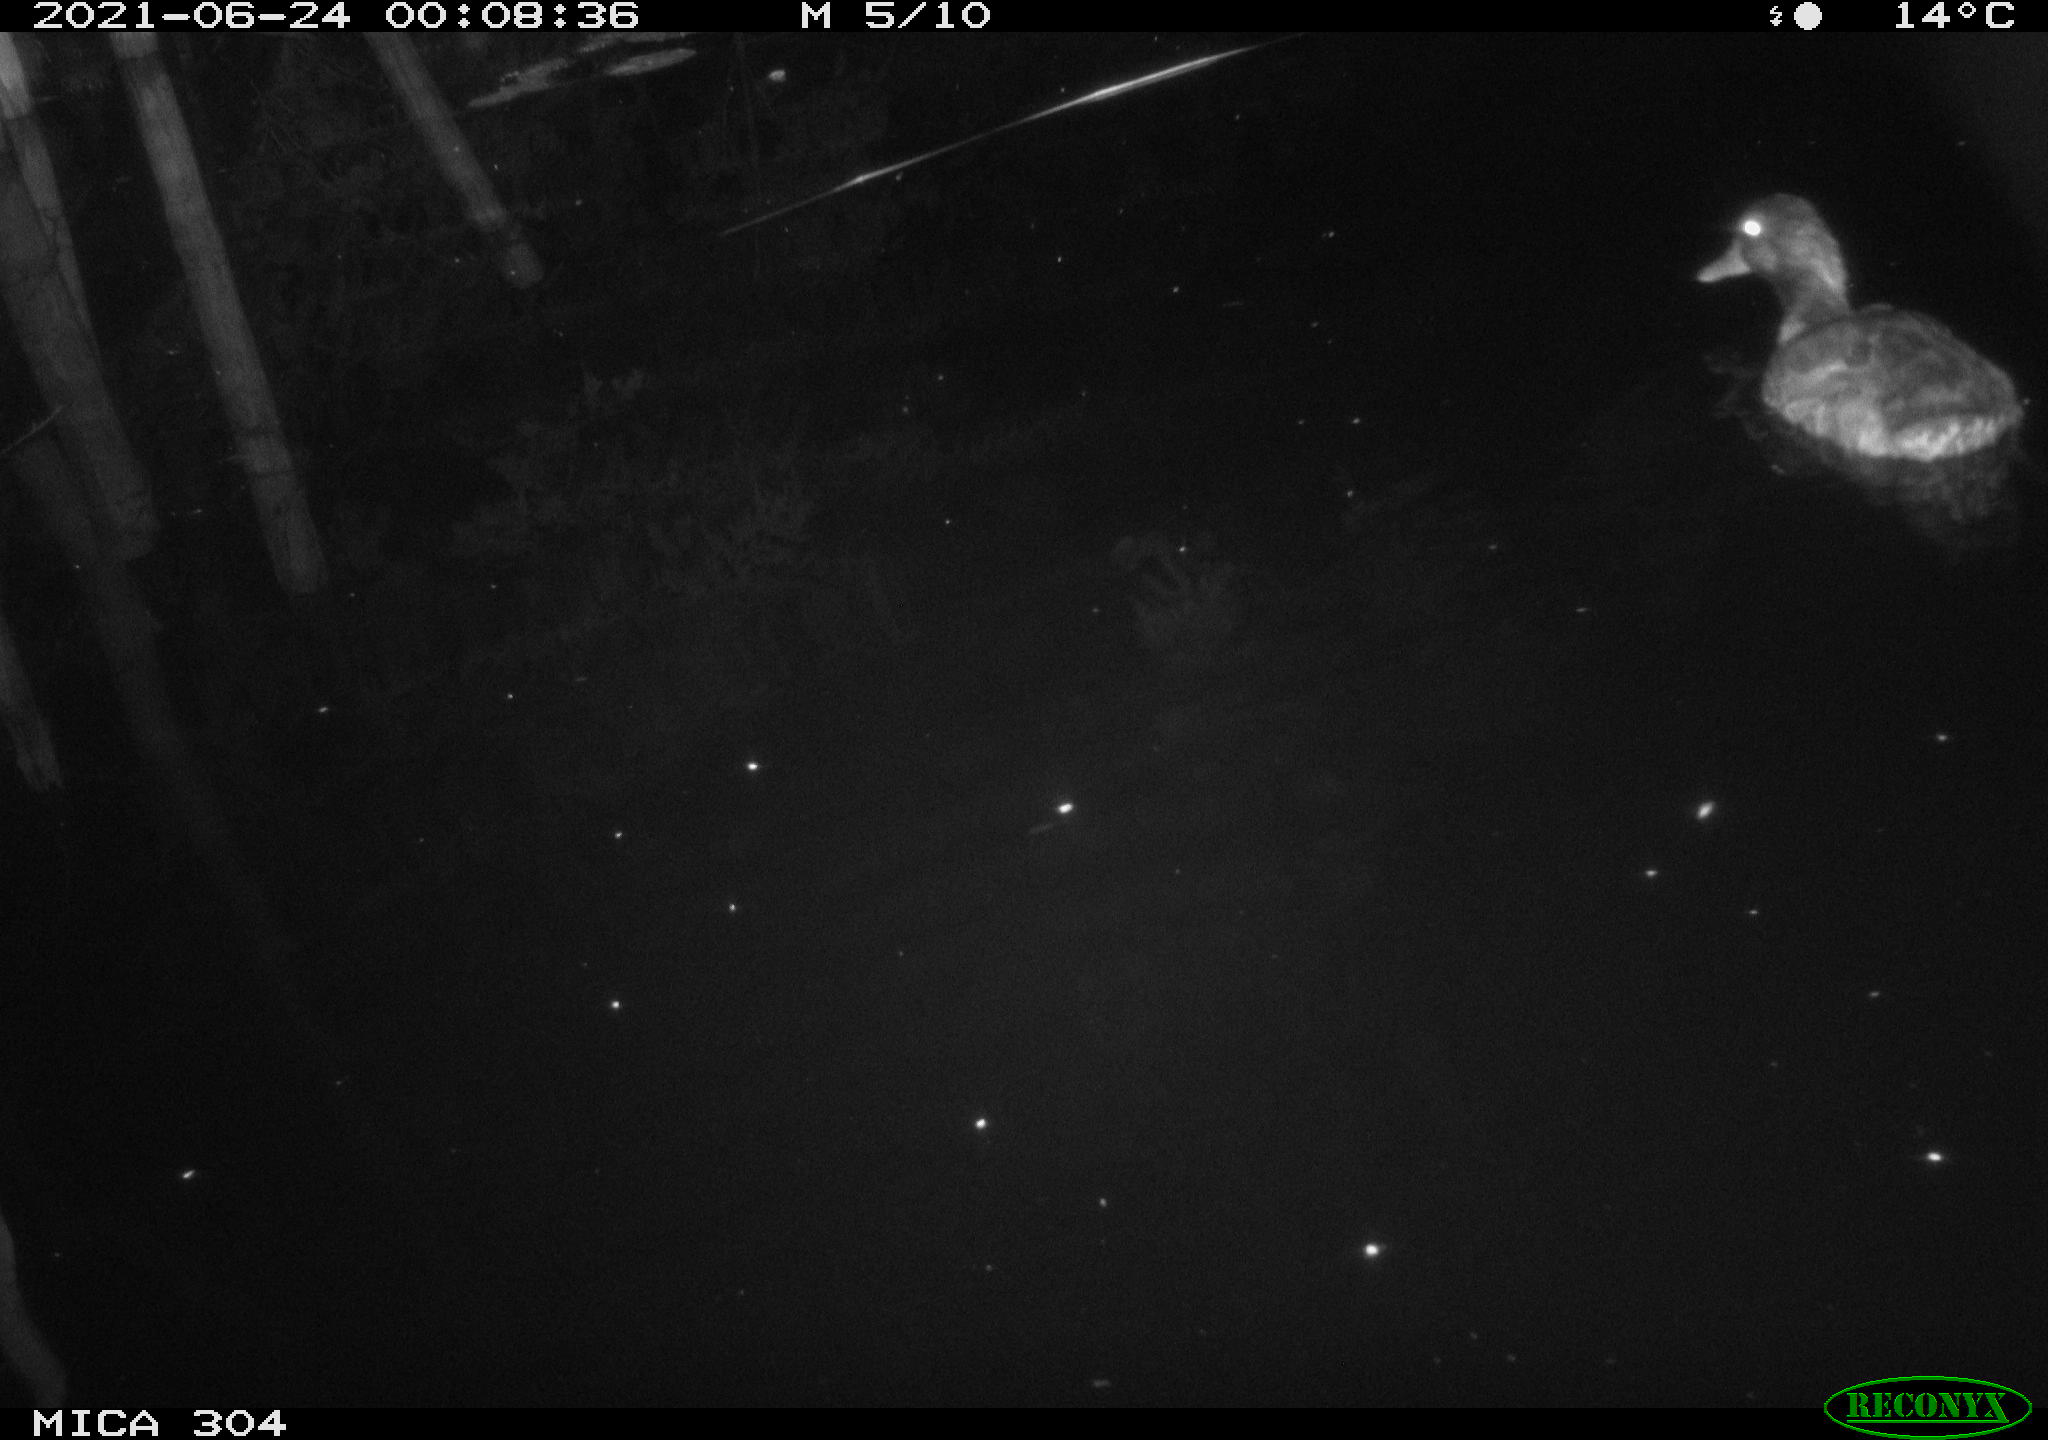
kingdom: Animalia
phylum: Chordata
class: Aves
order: Anseriformes
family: Anatidae
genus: Anas
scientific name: Anas platyrhynchos
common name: Mallard
